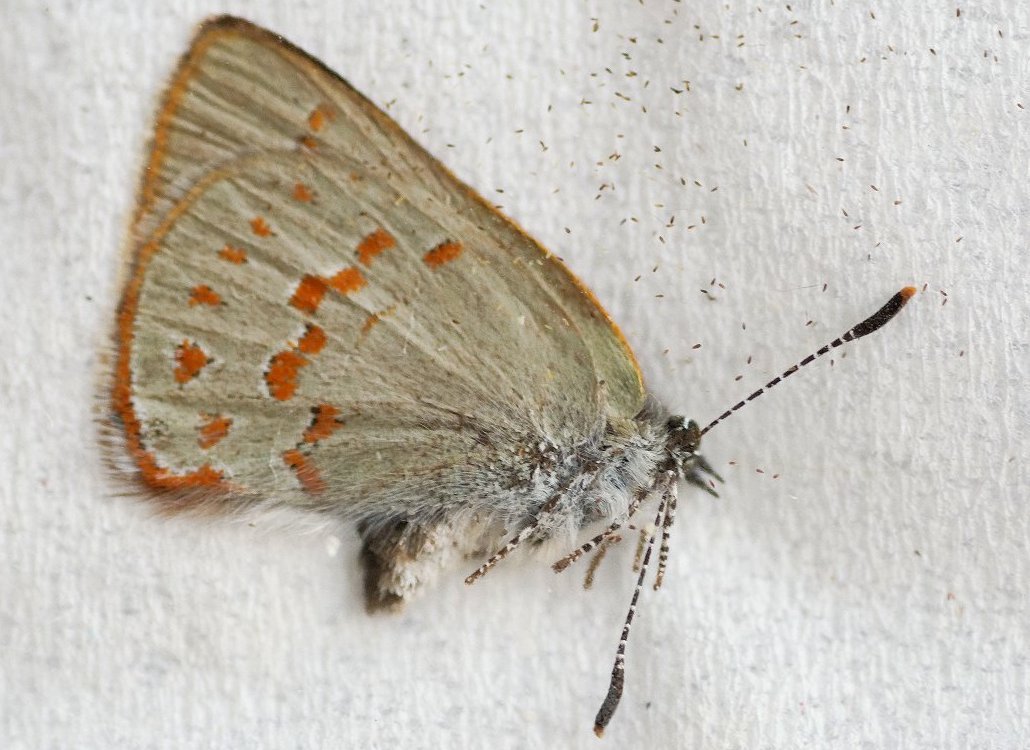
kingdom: Animalia
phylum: Arthropoda
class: Insecta
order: Lepidoptera
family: Lycaenidae
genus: Erora
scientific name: Erora laeta
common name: Early Hairstreak
